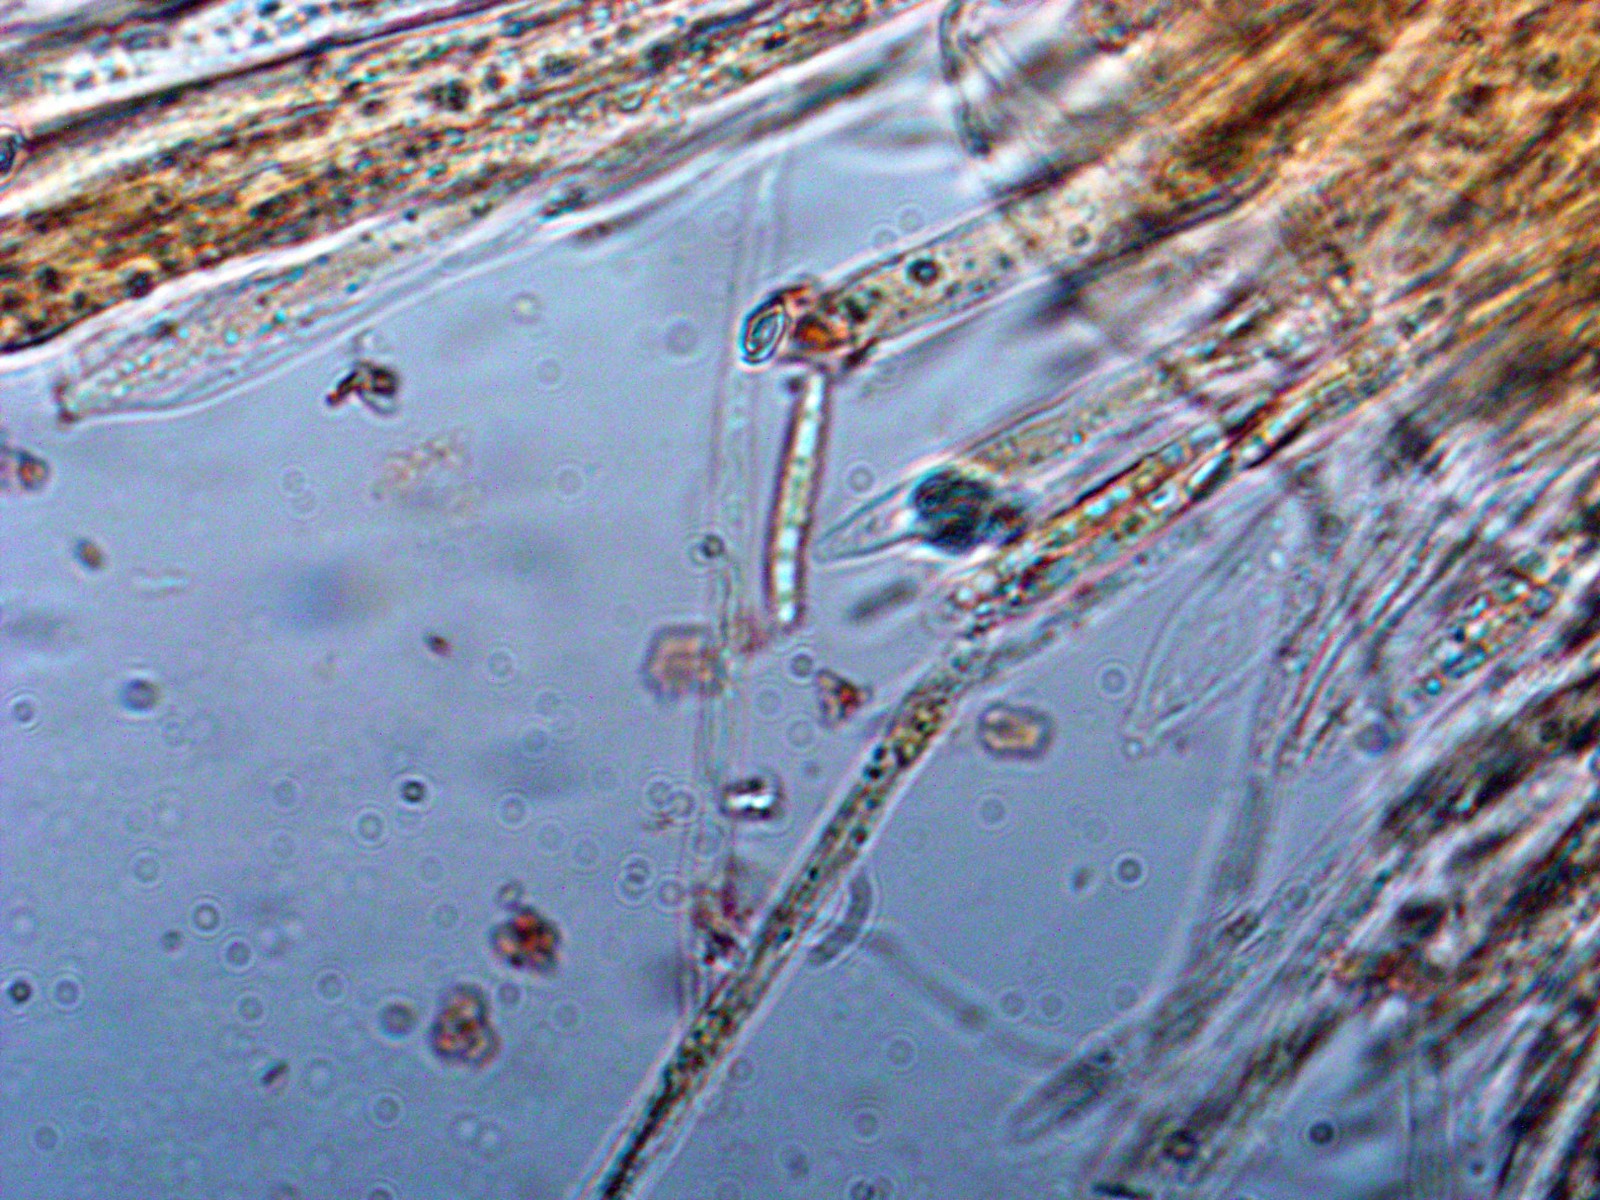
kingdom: Fungi
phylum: Ascomycota
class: Leotiomycetes
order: Helotiales
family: Mollisiaceae
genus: Trichobelonium
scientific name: Trichobelonium kneiffii
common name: tagrør-gråskive
